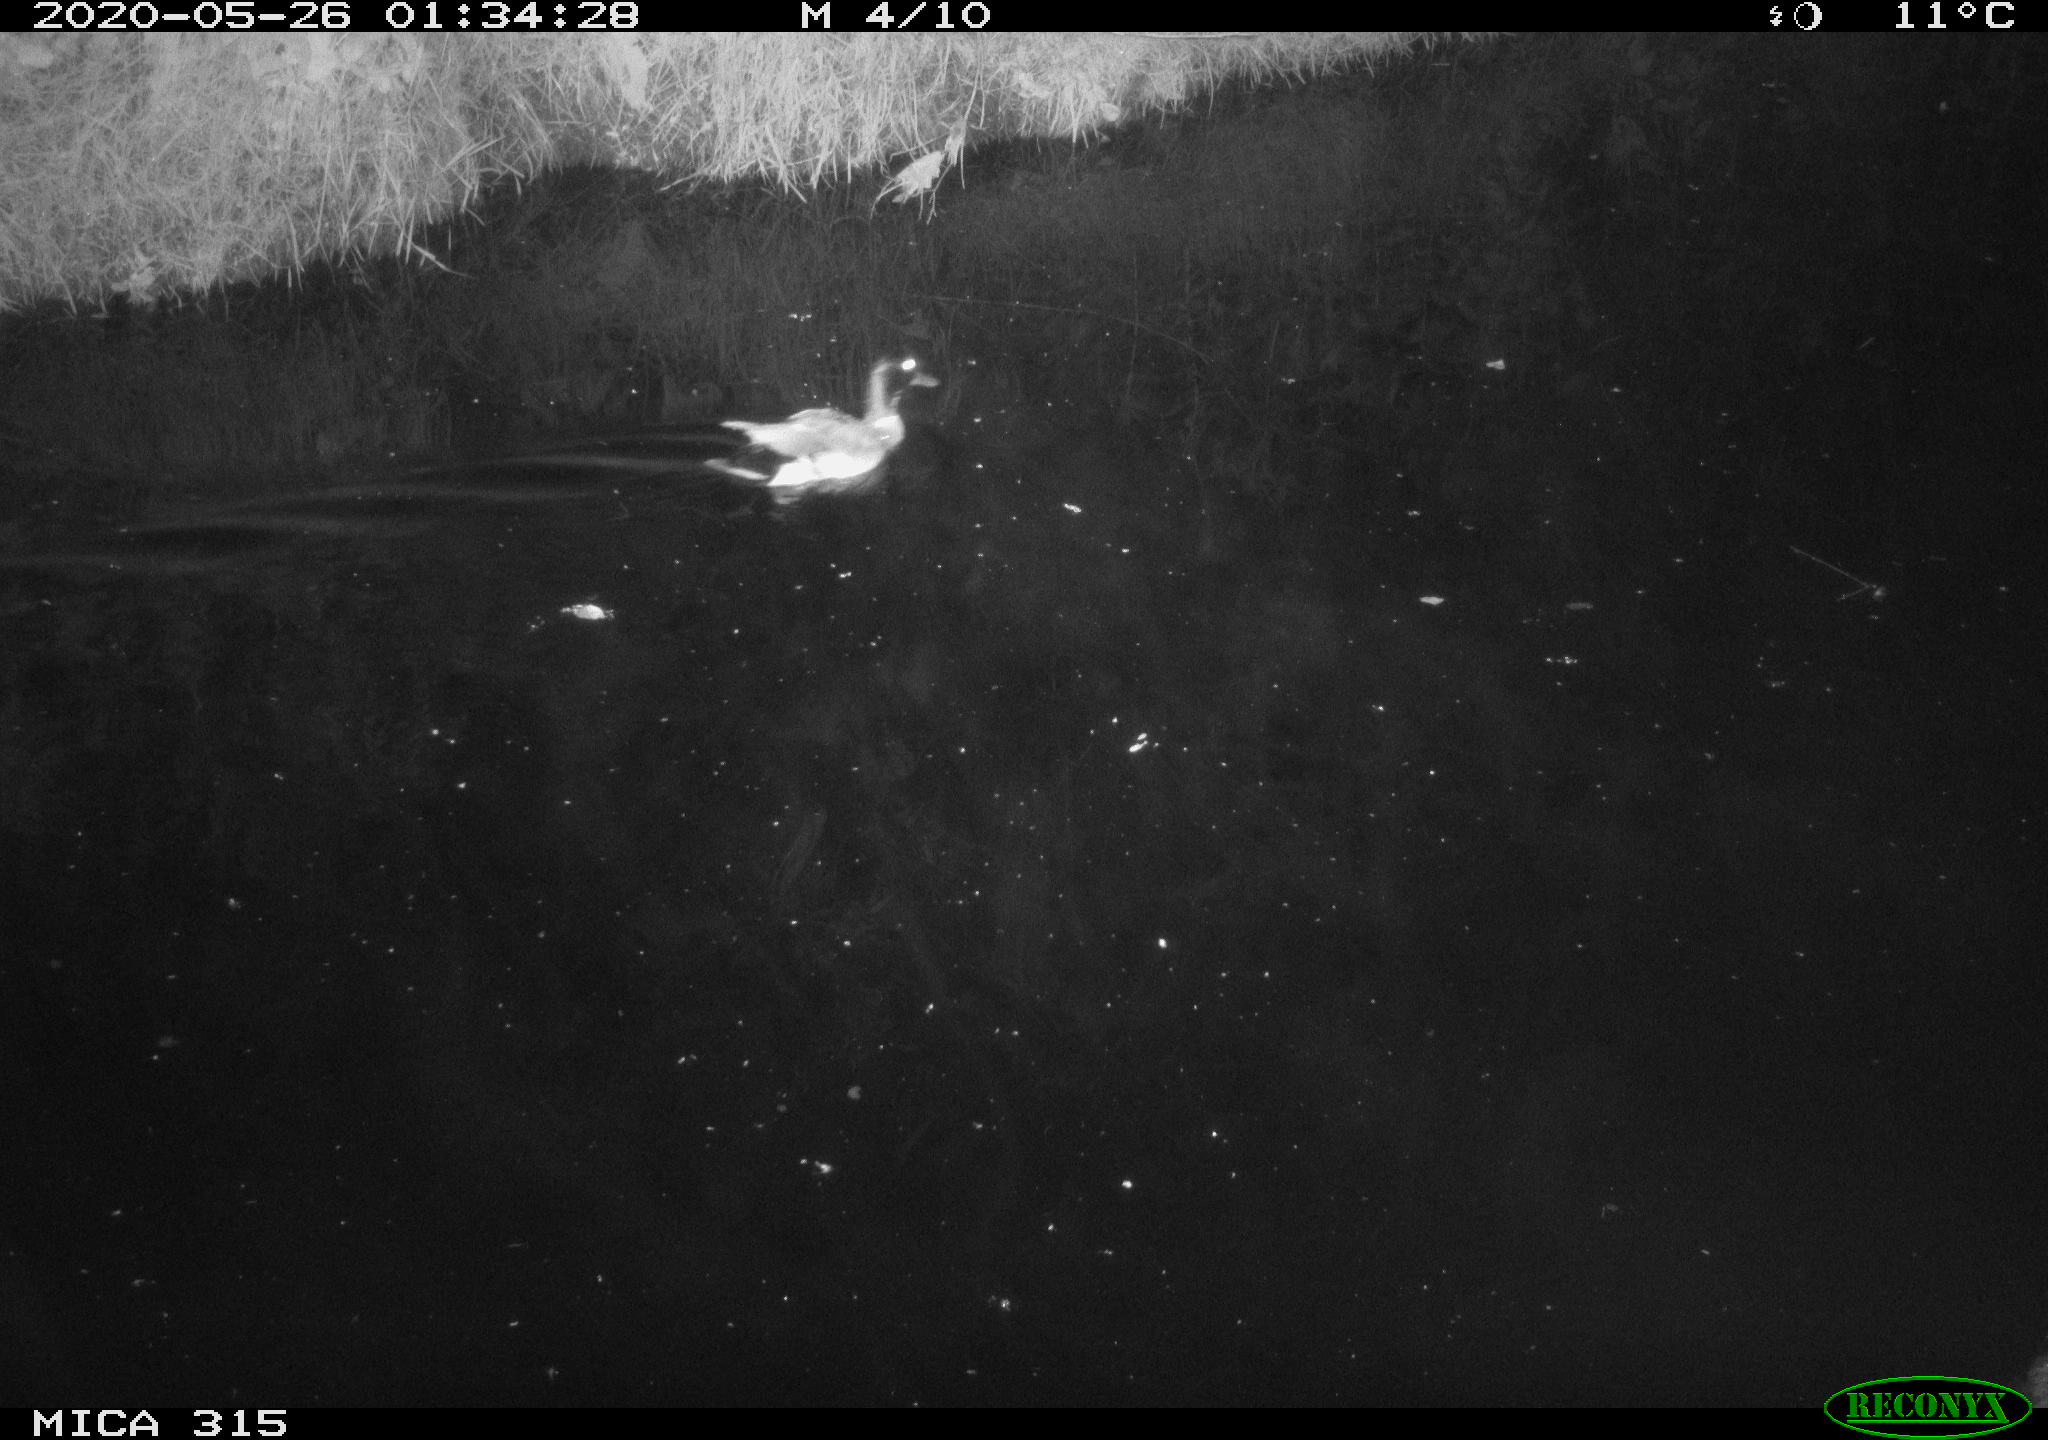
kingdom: Animalia
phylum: Chordata
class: Aves
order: Anseriformes
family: Anatidae
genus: Anas
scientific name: Anas platyrhynchos
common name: Mallard
